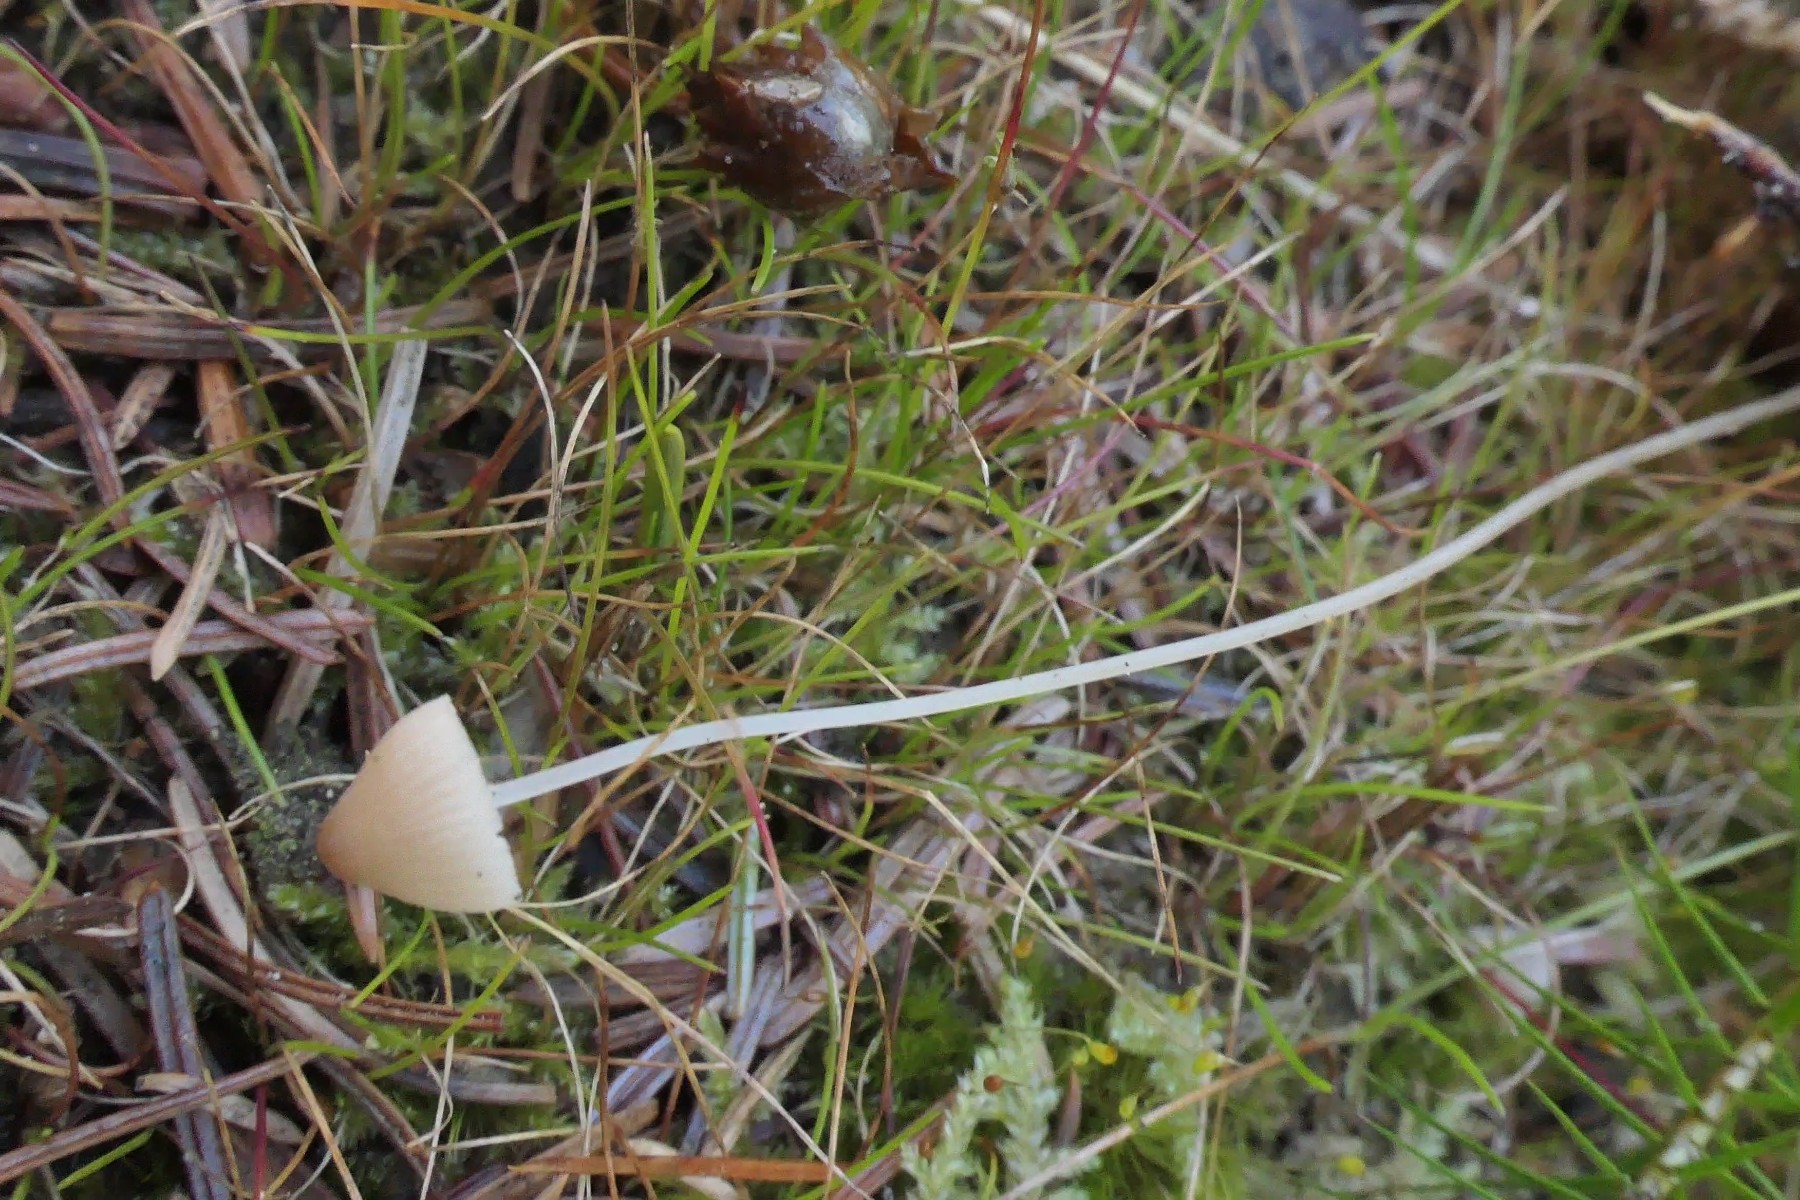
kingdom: Fungi
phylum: Basidiomycota
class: Agaricomycetes
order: Agaricales
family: Mycenaceae
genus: Mycena
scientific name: Mycena metata
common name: rødlig huesvamp
